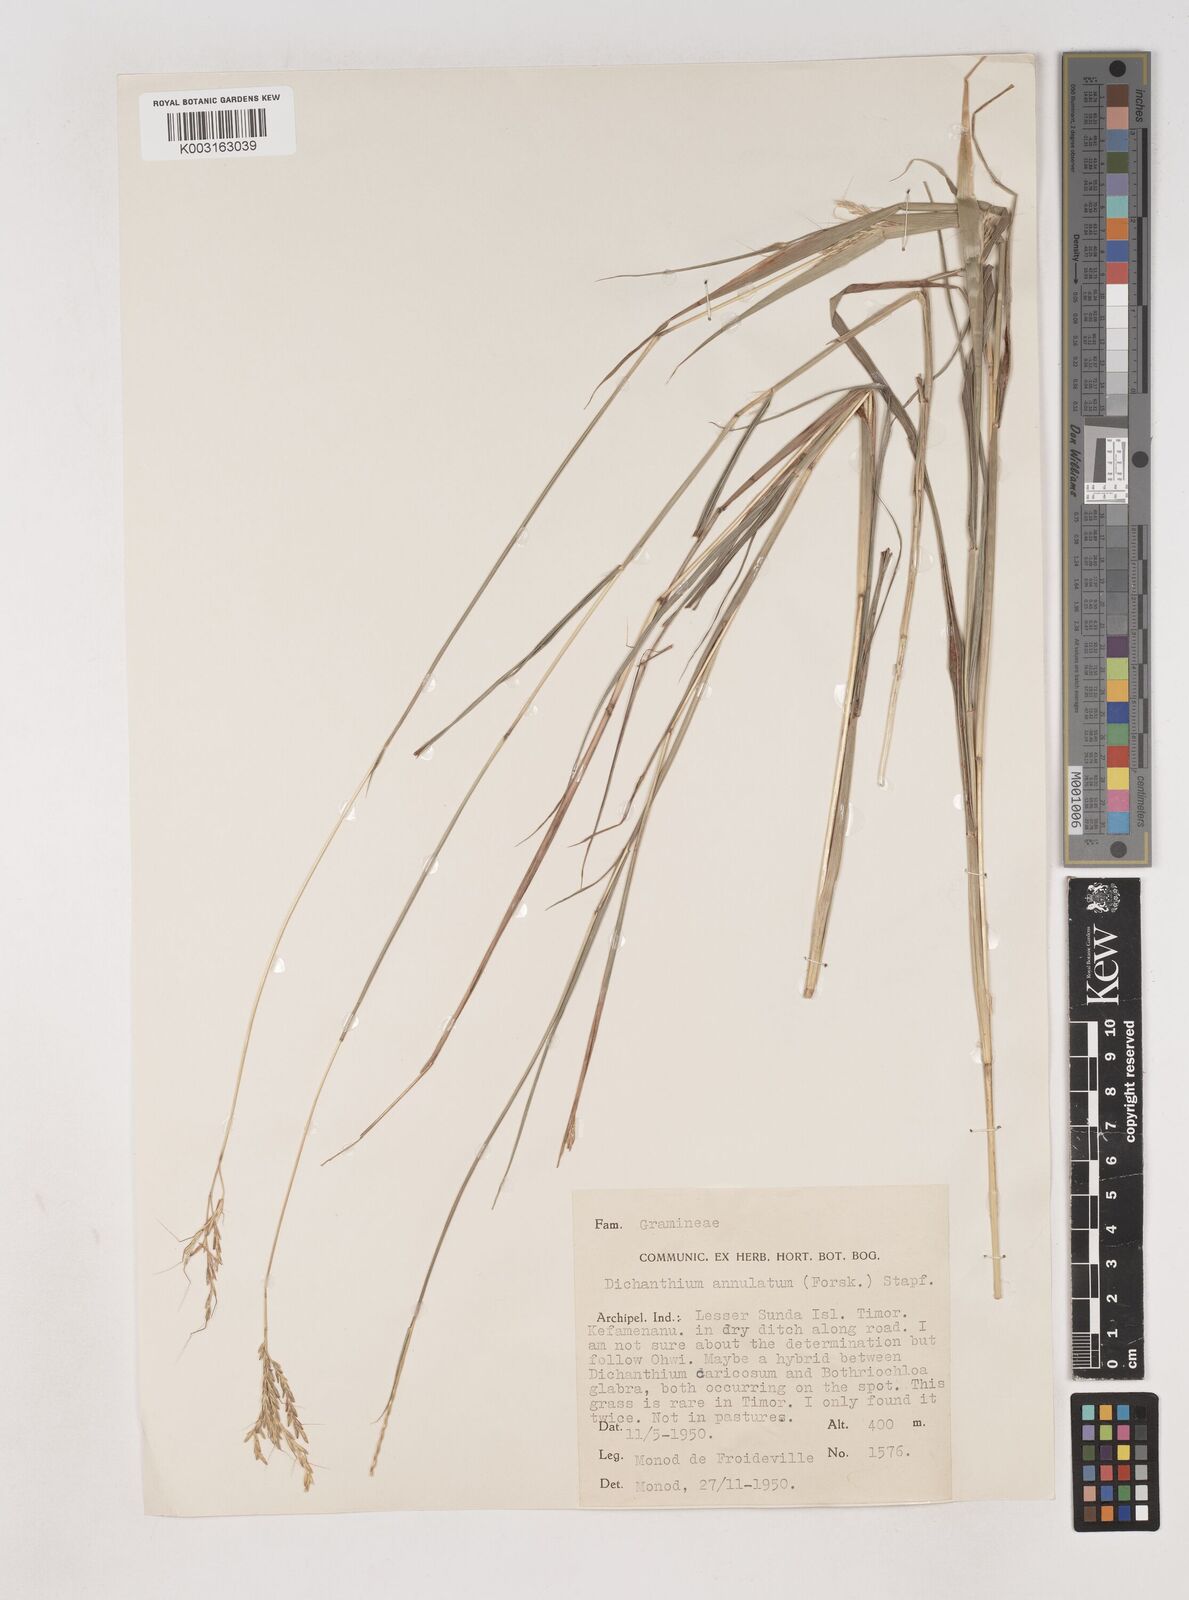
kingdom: Plantae
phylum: Tracheophyta
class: Liliopsida
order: Poales
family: Poaceae
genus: Dichanthium
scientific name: Dichanthium annulatum
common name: Kleberg's bluestem
